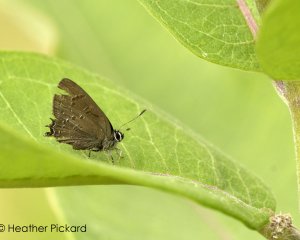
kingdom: Animalia
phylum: Arthropoda
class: Insecta
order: Lepidoptera
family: Lycaenidae
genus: Satyrium
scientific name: Satyrium calanus
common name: Banded Hairstreak
